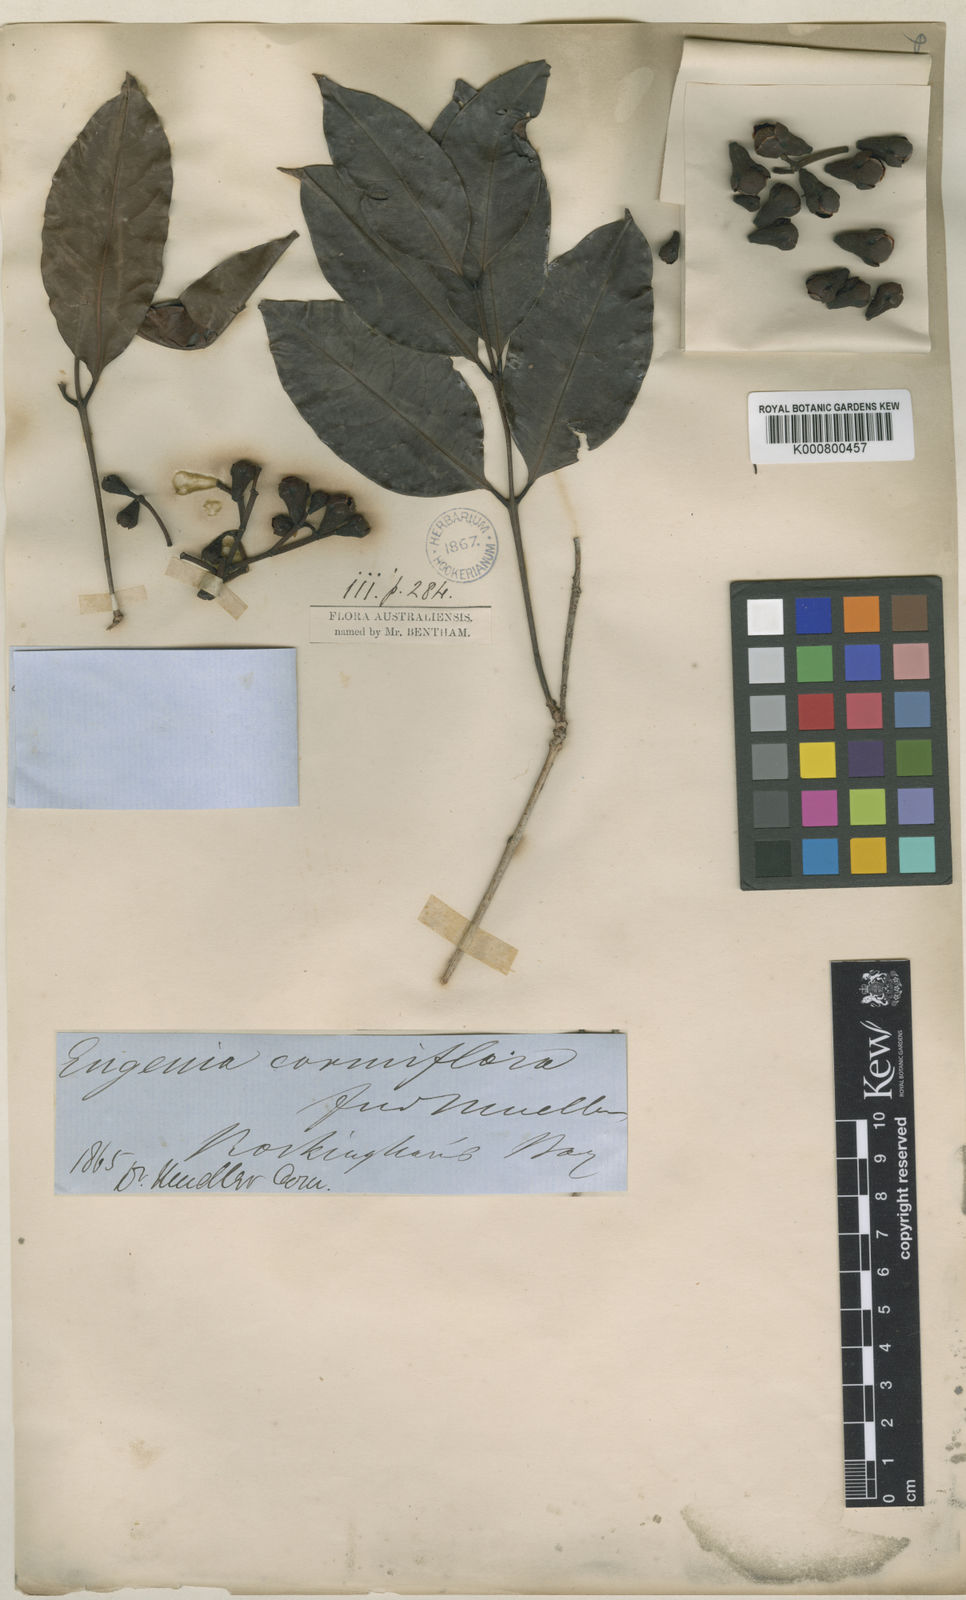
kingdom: Plantae
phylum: Tracheophyta
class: Magnoliopsida
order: Myrtales
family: Myrtaceae
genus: Syzygium
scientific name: Syzygium cormiflorum
